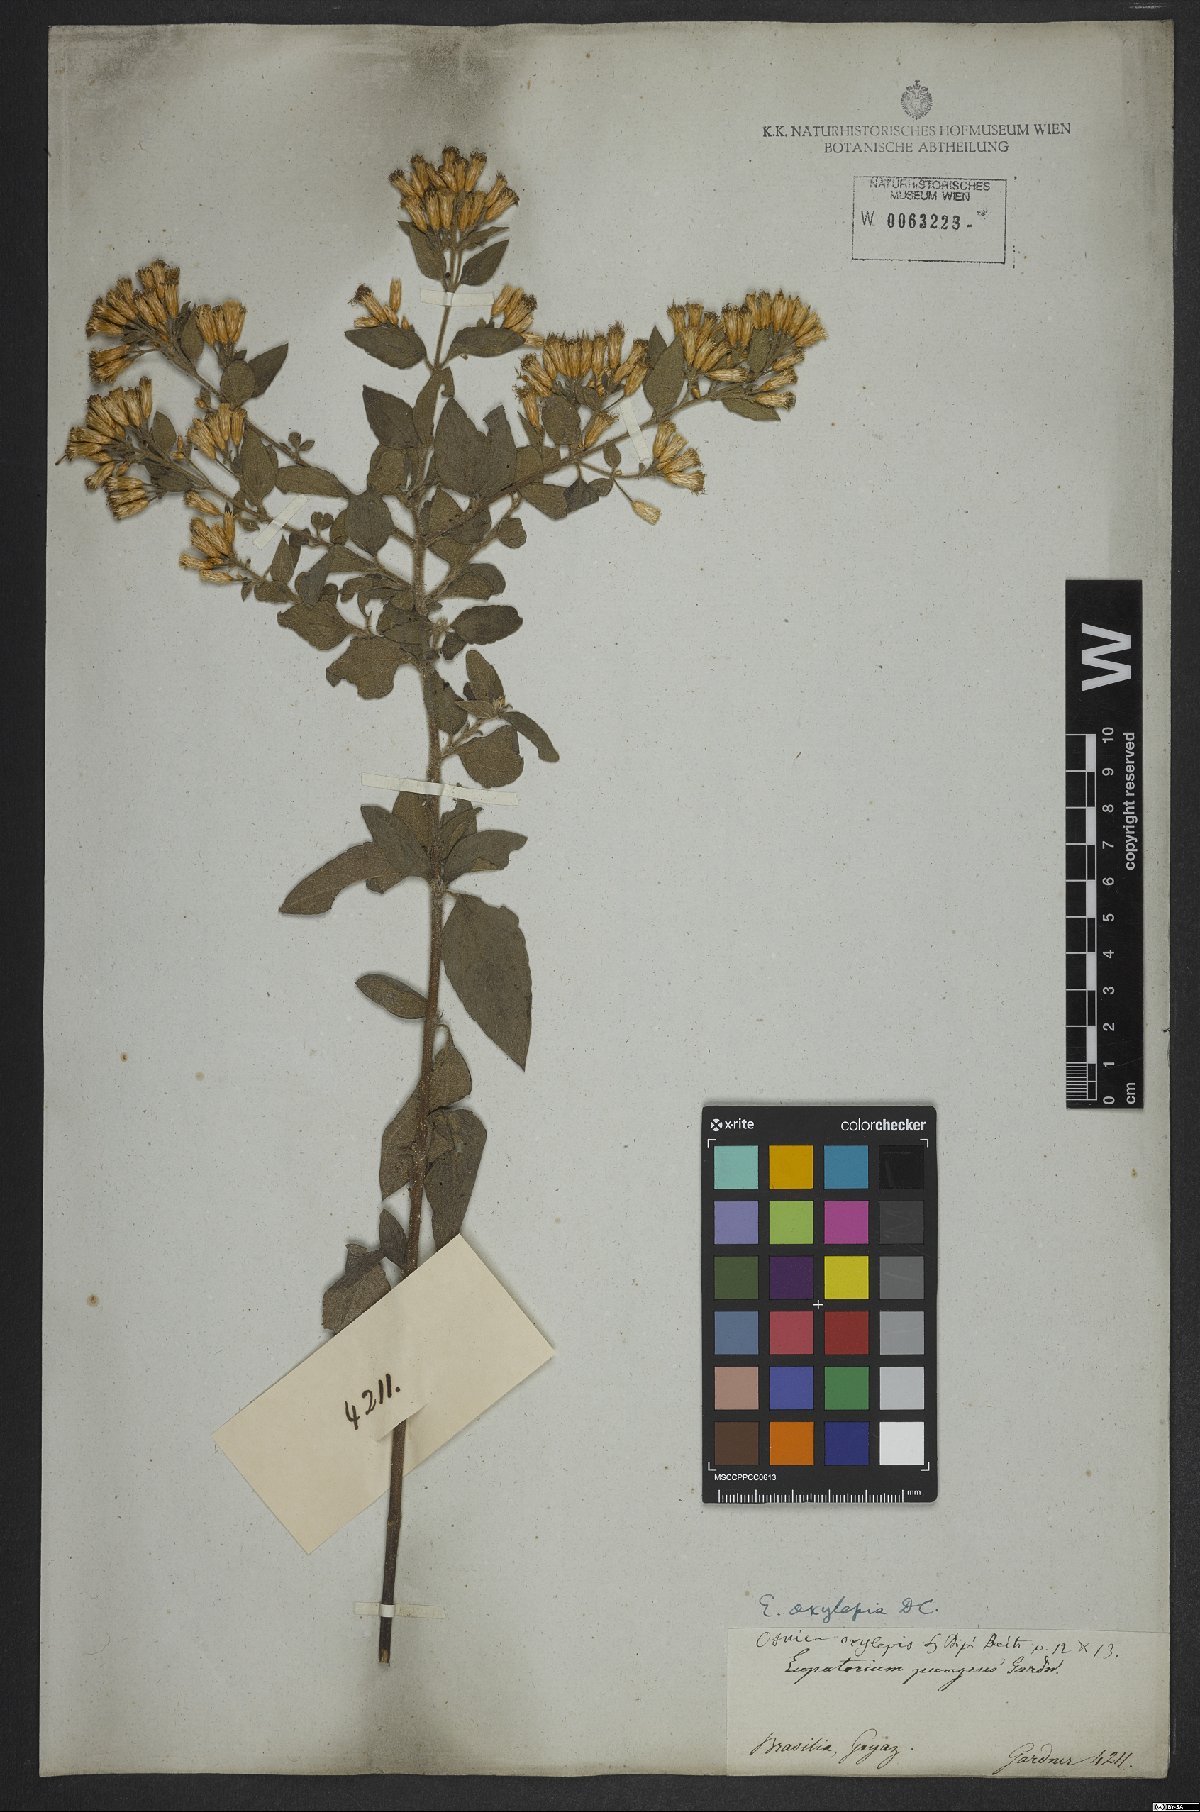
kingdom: Plantae
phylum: Tracheophyta
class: Magnoliopsida
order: Asterales
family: Asteraceae
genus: Chromolaena
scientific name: Chromolaena oxylepis
